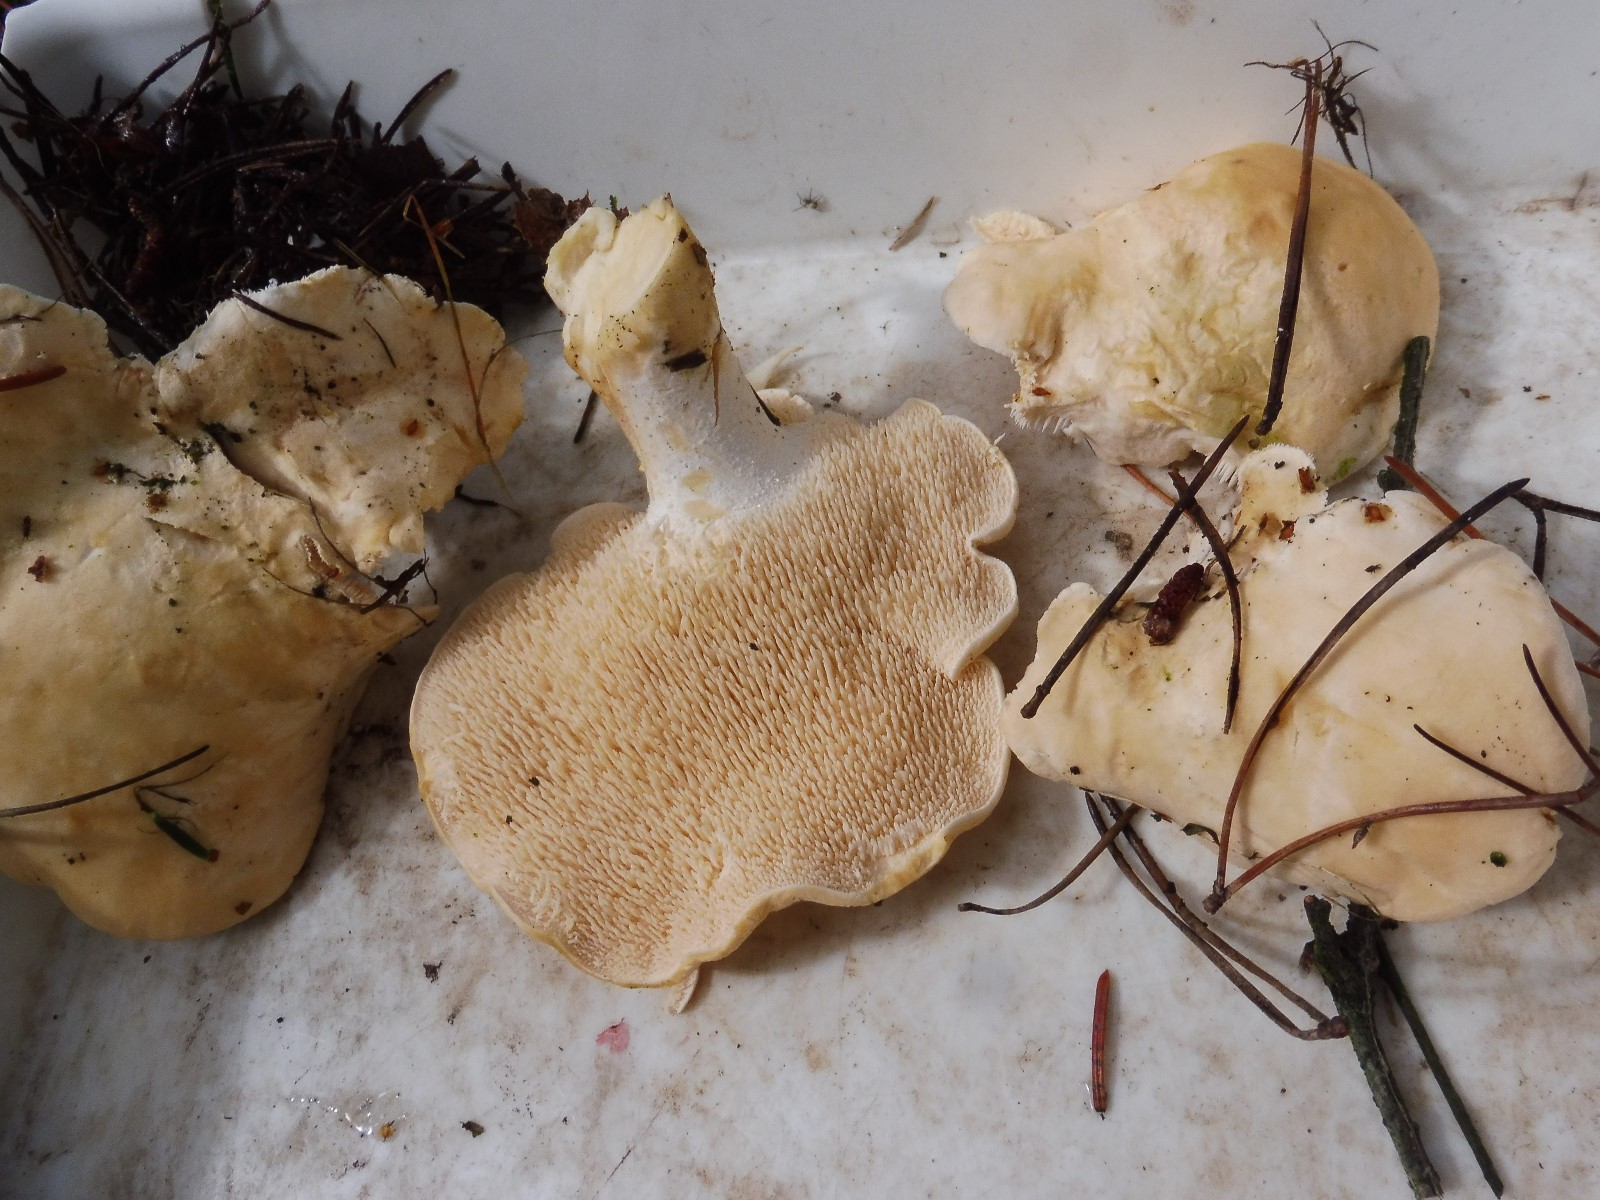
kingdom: Fungi
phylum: Basidiomycota
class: Agaricomycetes
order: Cantharellales
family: Hydnaceae
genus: Hydnum
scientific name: Hydnum repandum
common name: almindelig pigsvamp
